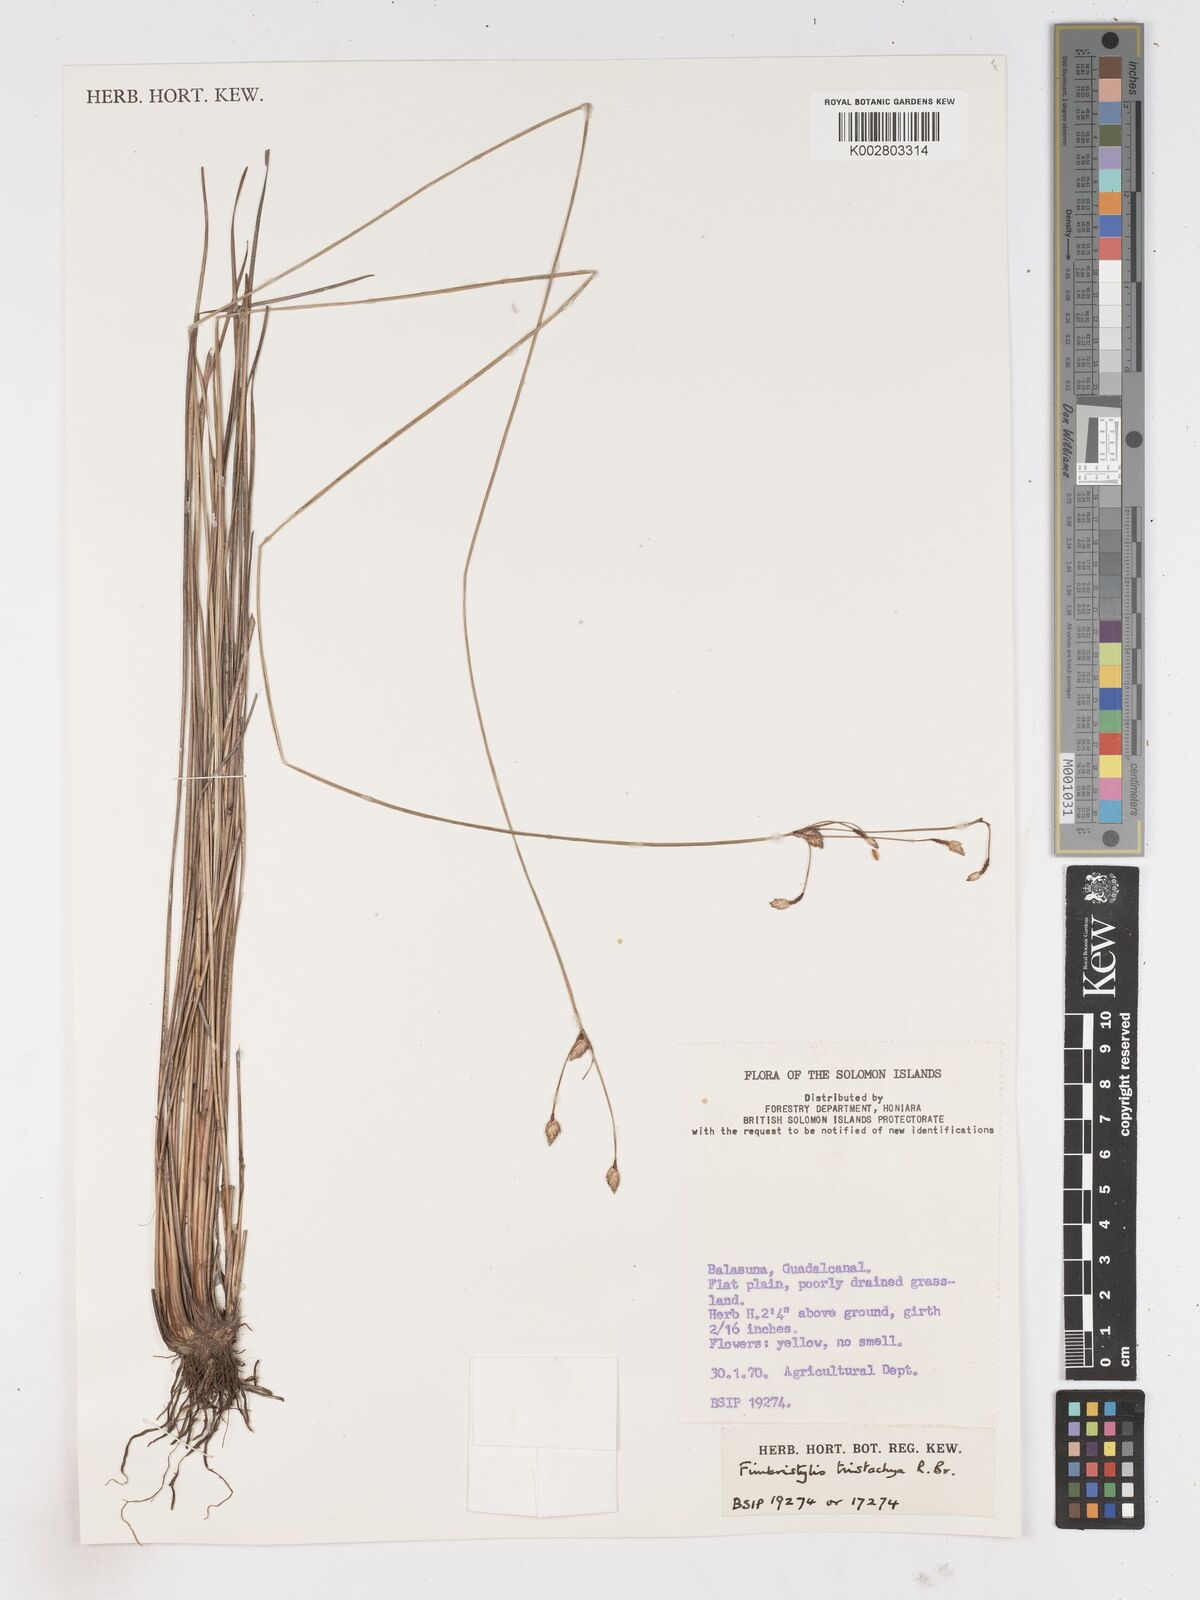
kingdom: Plantae
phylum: Tracheophyta
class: Liliopsida
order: Poales
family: Cyperaceae
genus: Fimbristylis
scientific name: Fimbristylis tristachya
